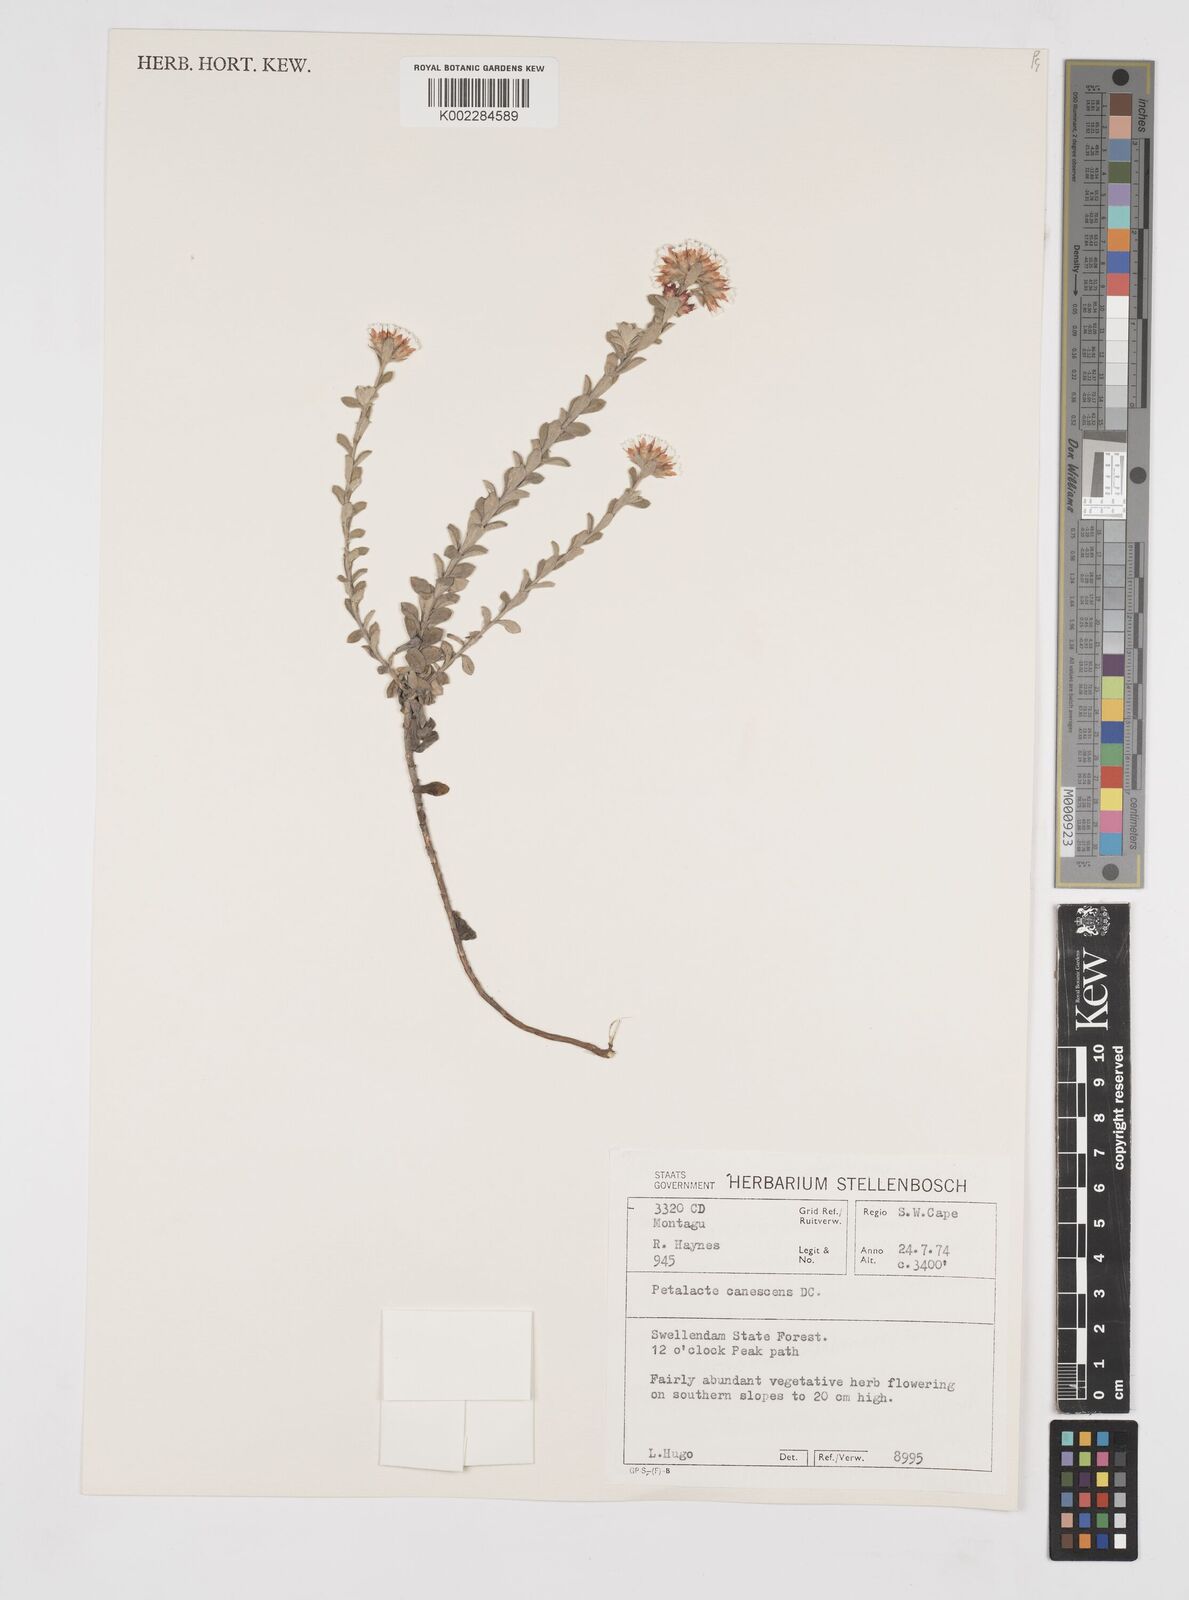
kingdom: Plantae
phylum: Tracheophyta
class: Magnoliopsida
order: Asterales
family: Asteraceae
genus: Langebergia
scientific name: Langebergia canescens
